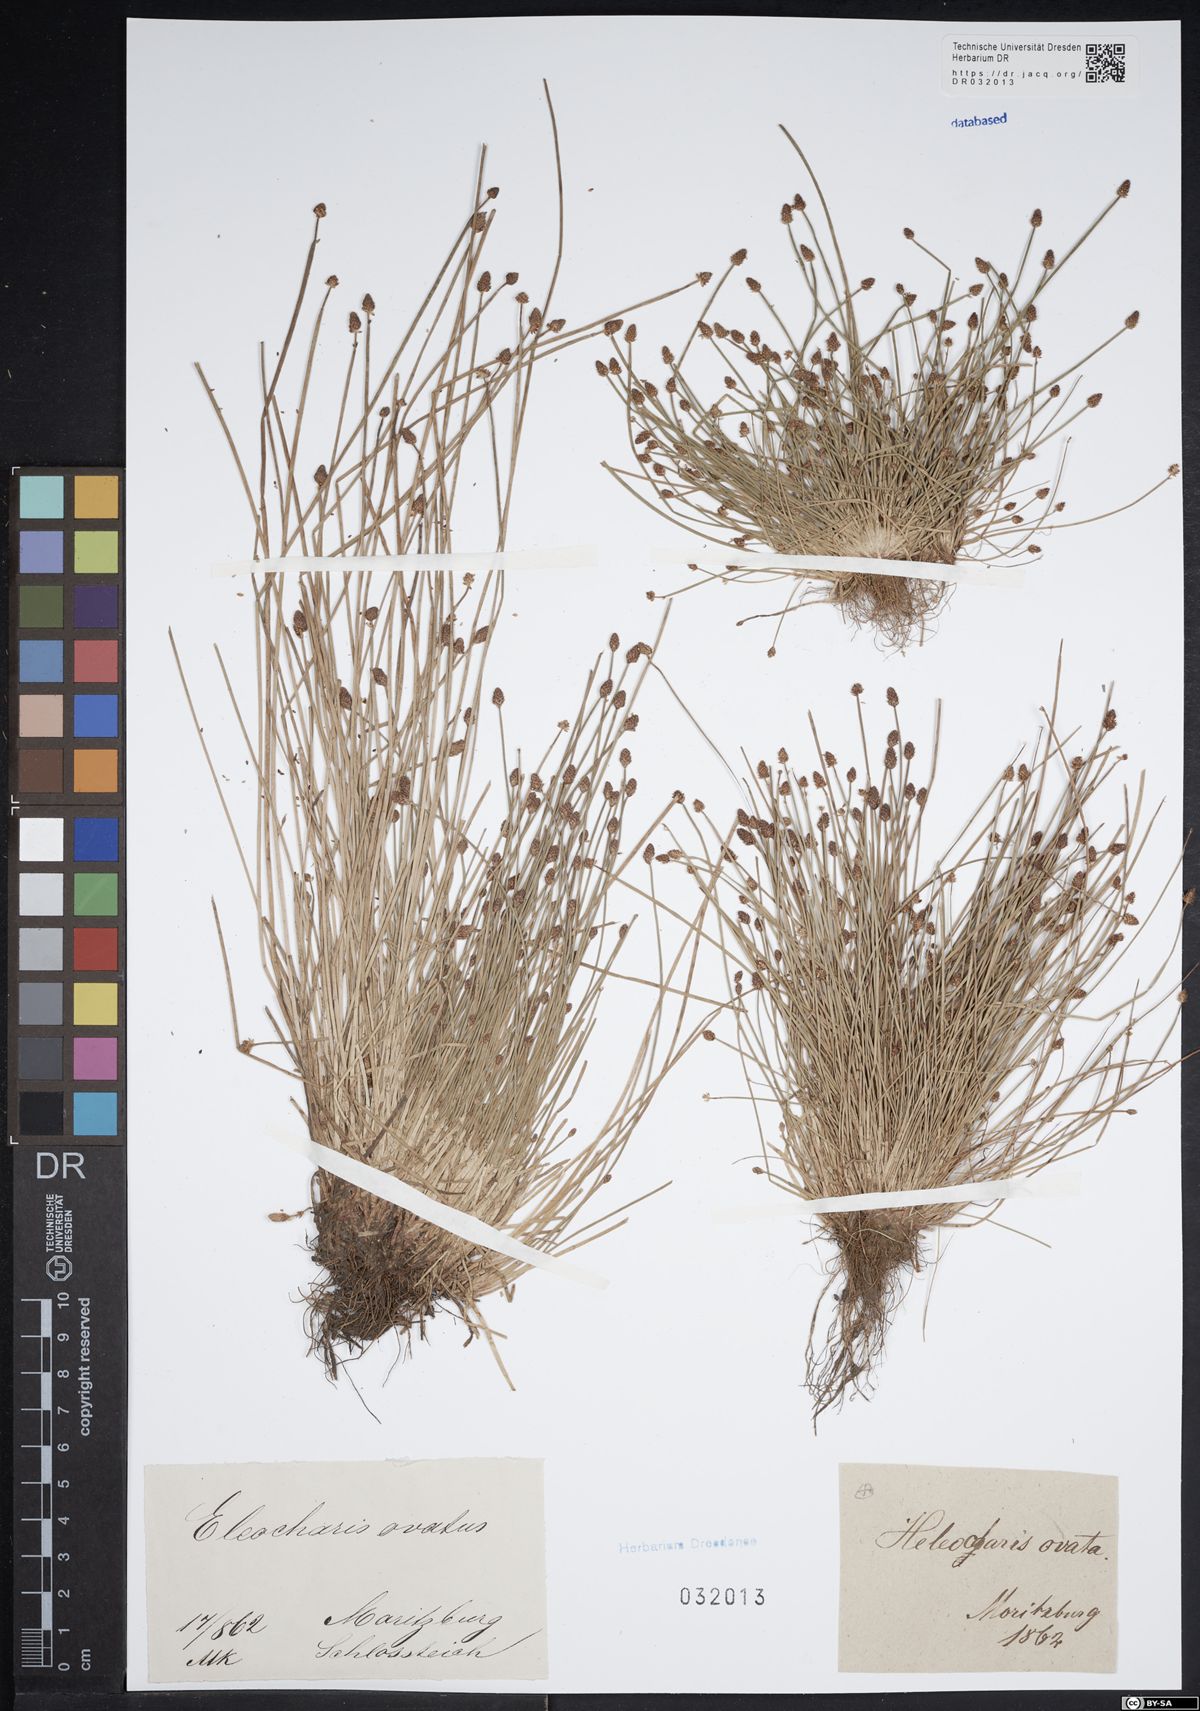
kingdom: Plantae
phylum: Tracheophyta
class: Liliopsida
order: Poales
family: Cyperaceae
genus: Eleocharis
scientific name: Eleocharis ovata
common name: Oval spike-rush
